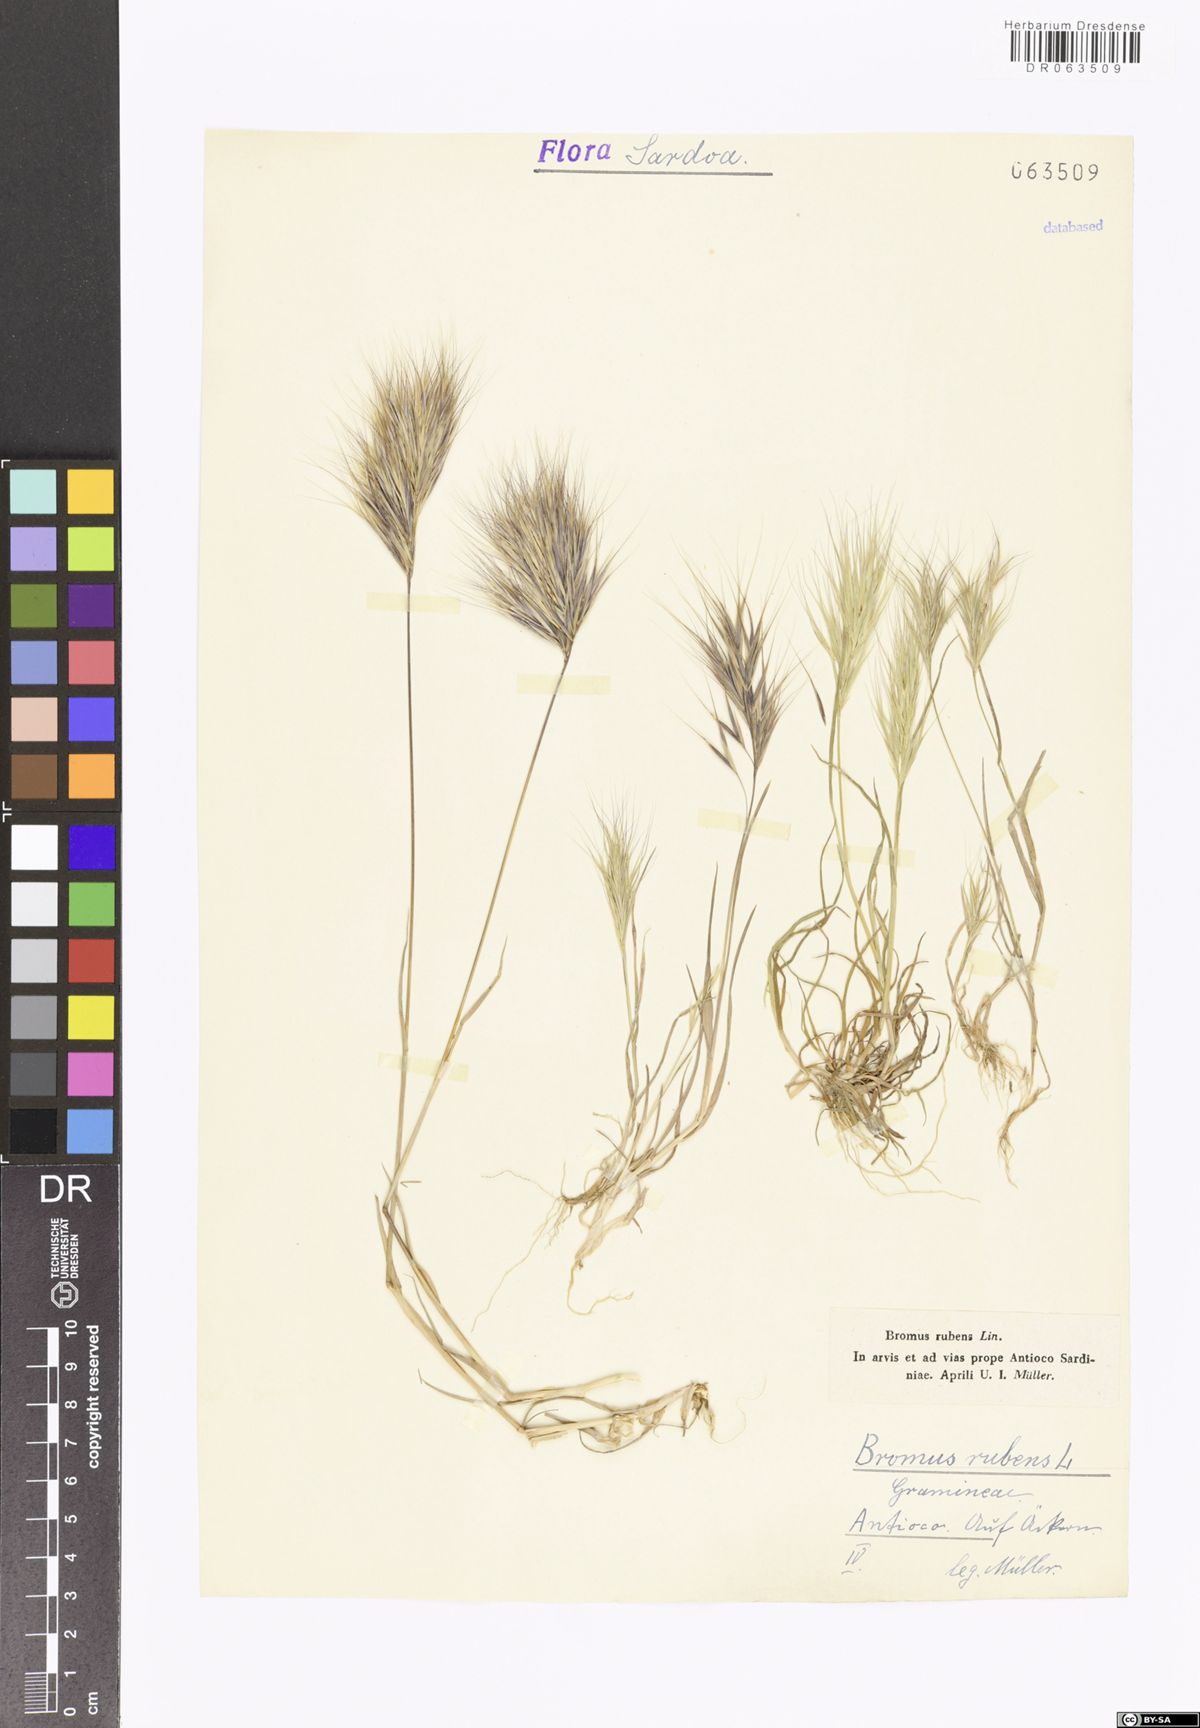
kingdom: Plantae
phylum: Tracheophyta
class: Liliopsida
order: Poales
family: Poaceae
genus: Bromus
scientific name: Bromus rubens
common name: Red brome
